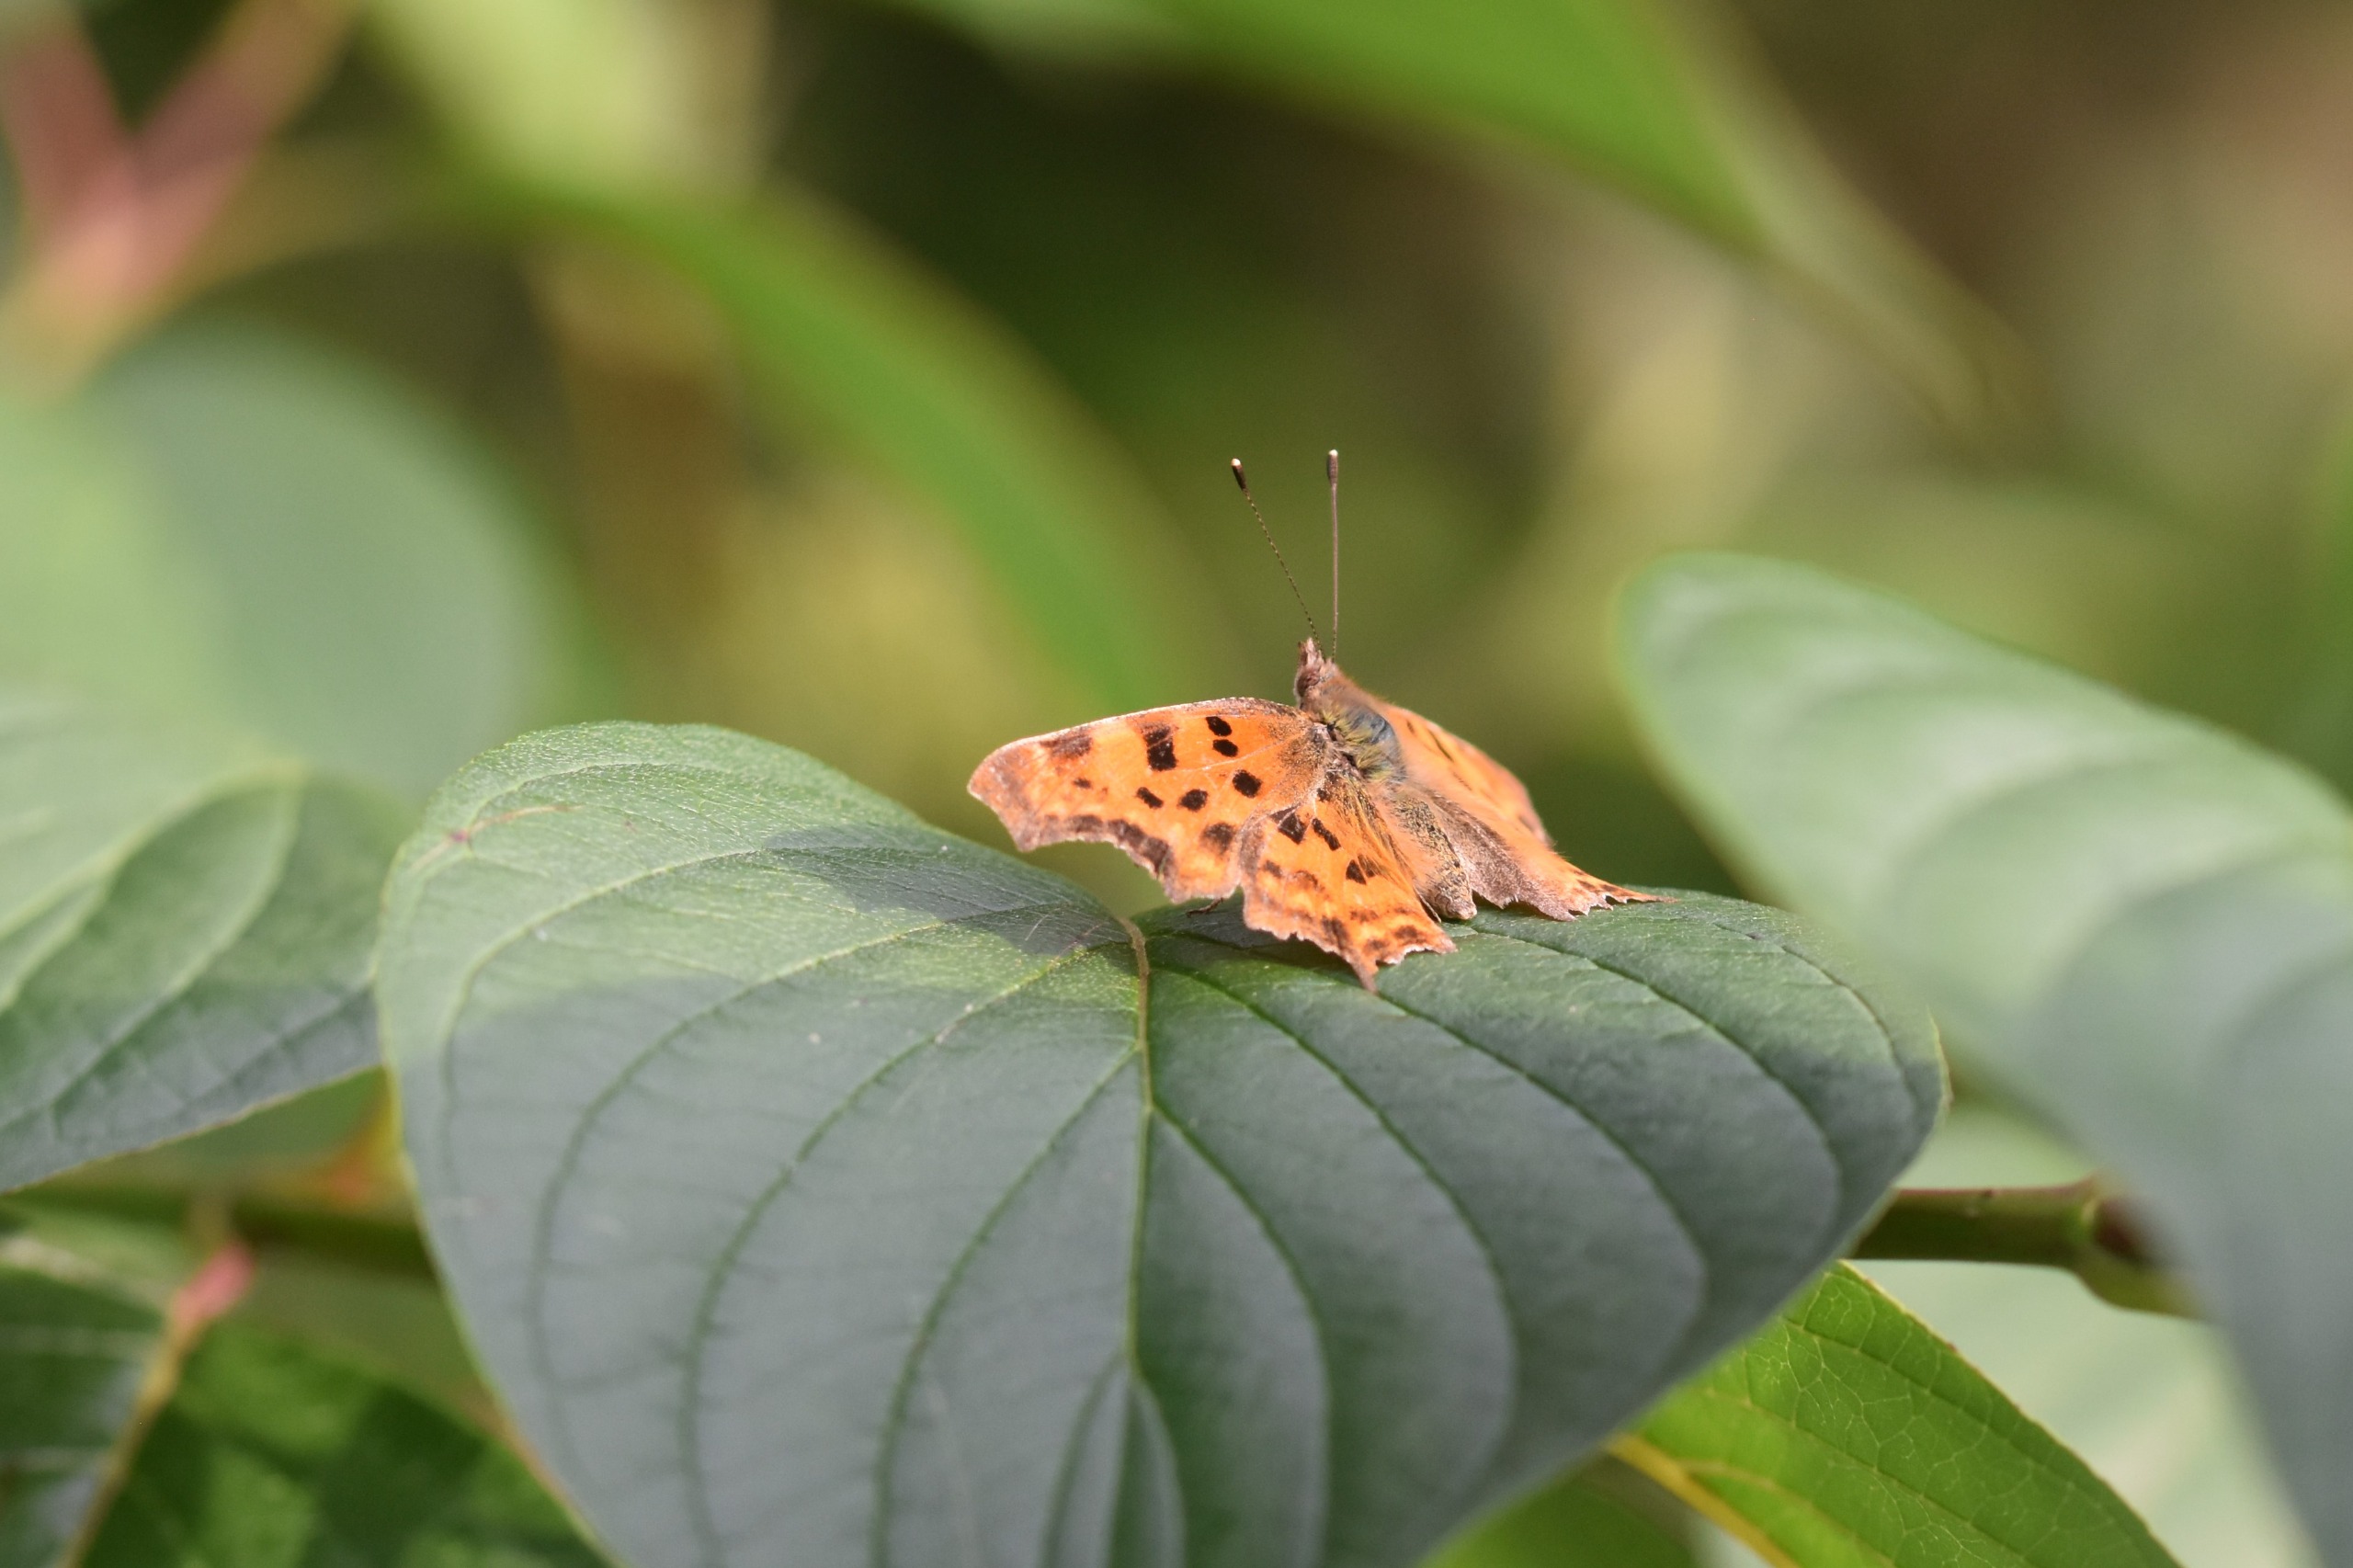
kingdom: Animalia
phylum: Arthropoda
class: Insecta
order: Lepidoptera
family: Nymphalidae
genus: Polygonia
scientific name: Polygonia c-album
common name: Det hvide C
